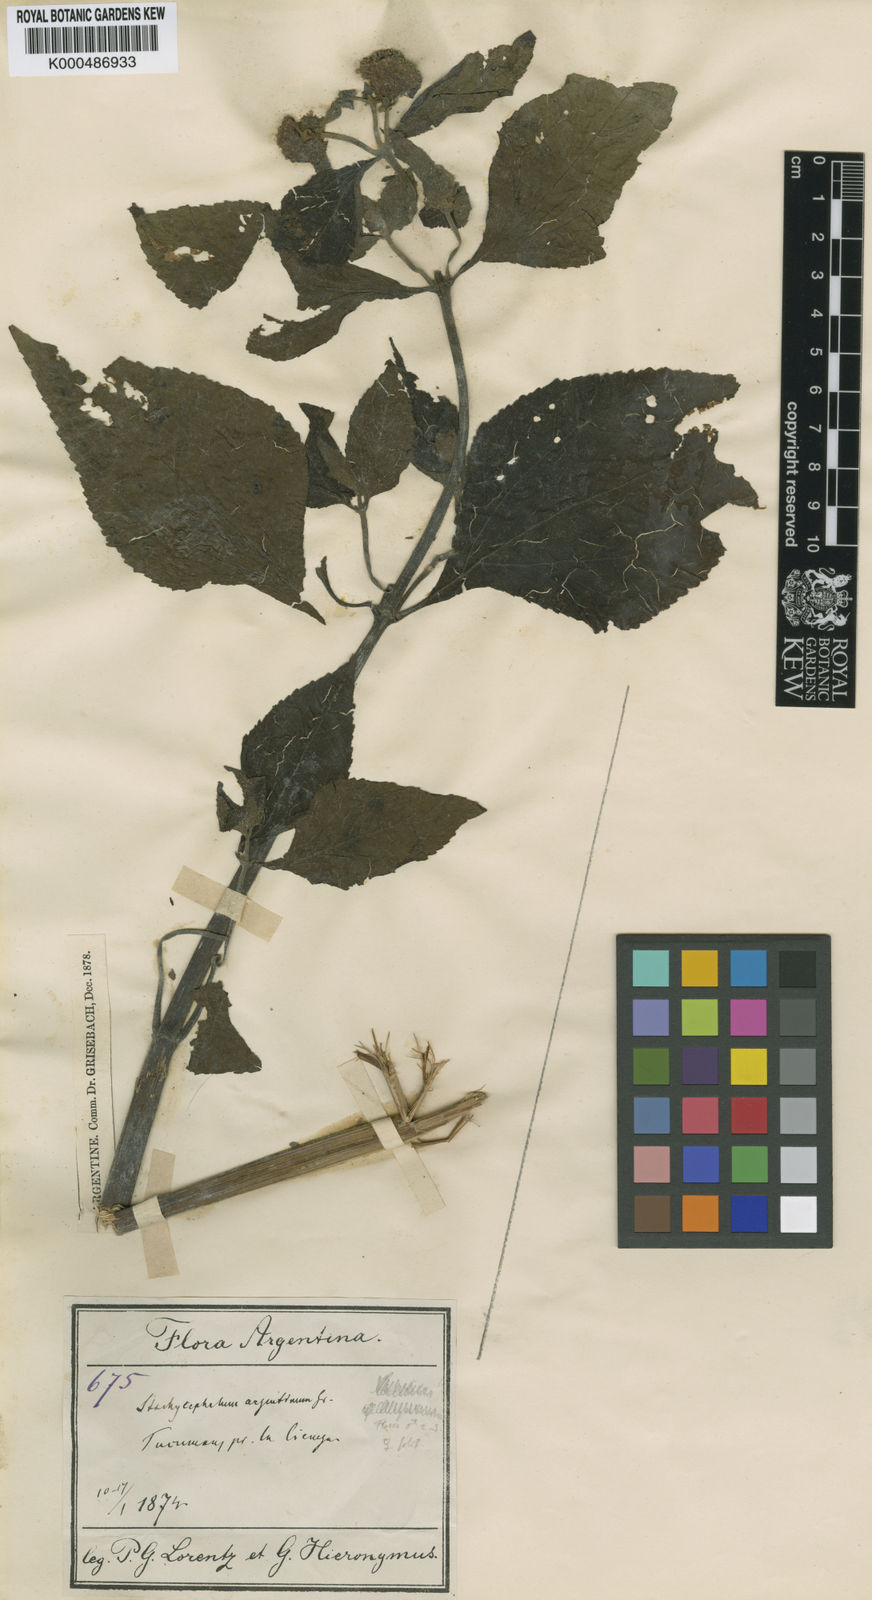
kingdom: Plantae
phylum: Tracheophyta
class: Magnoliopsida
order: Asterales
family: Asteraceae
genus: Stachycephalum
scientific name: Stachycephalum argentinum
